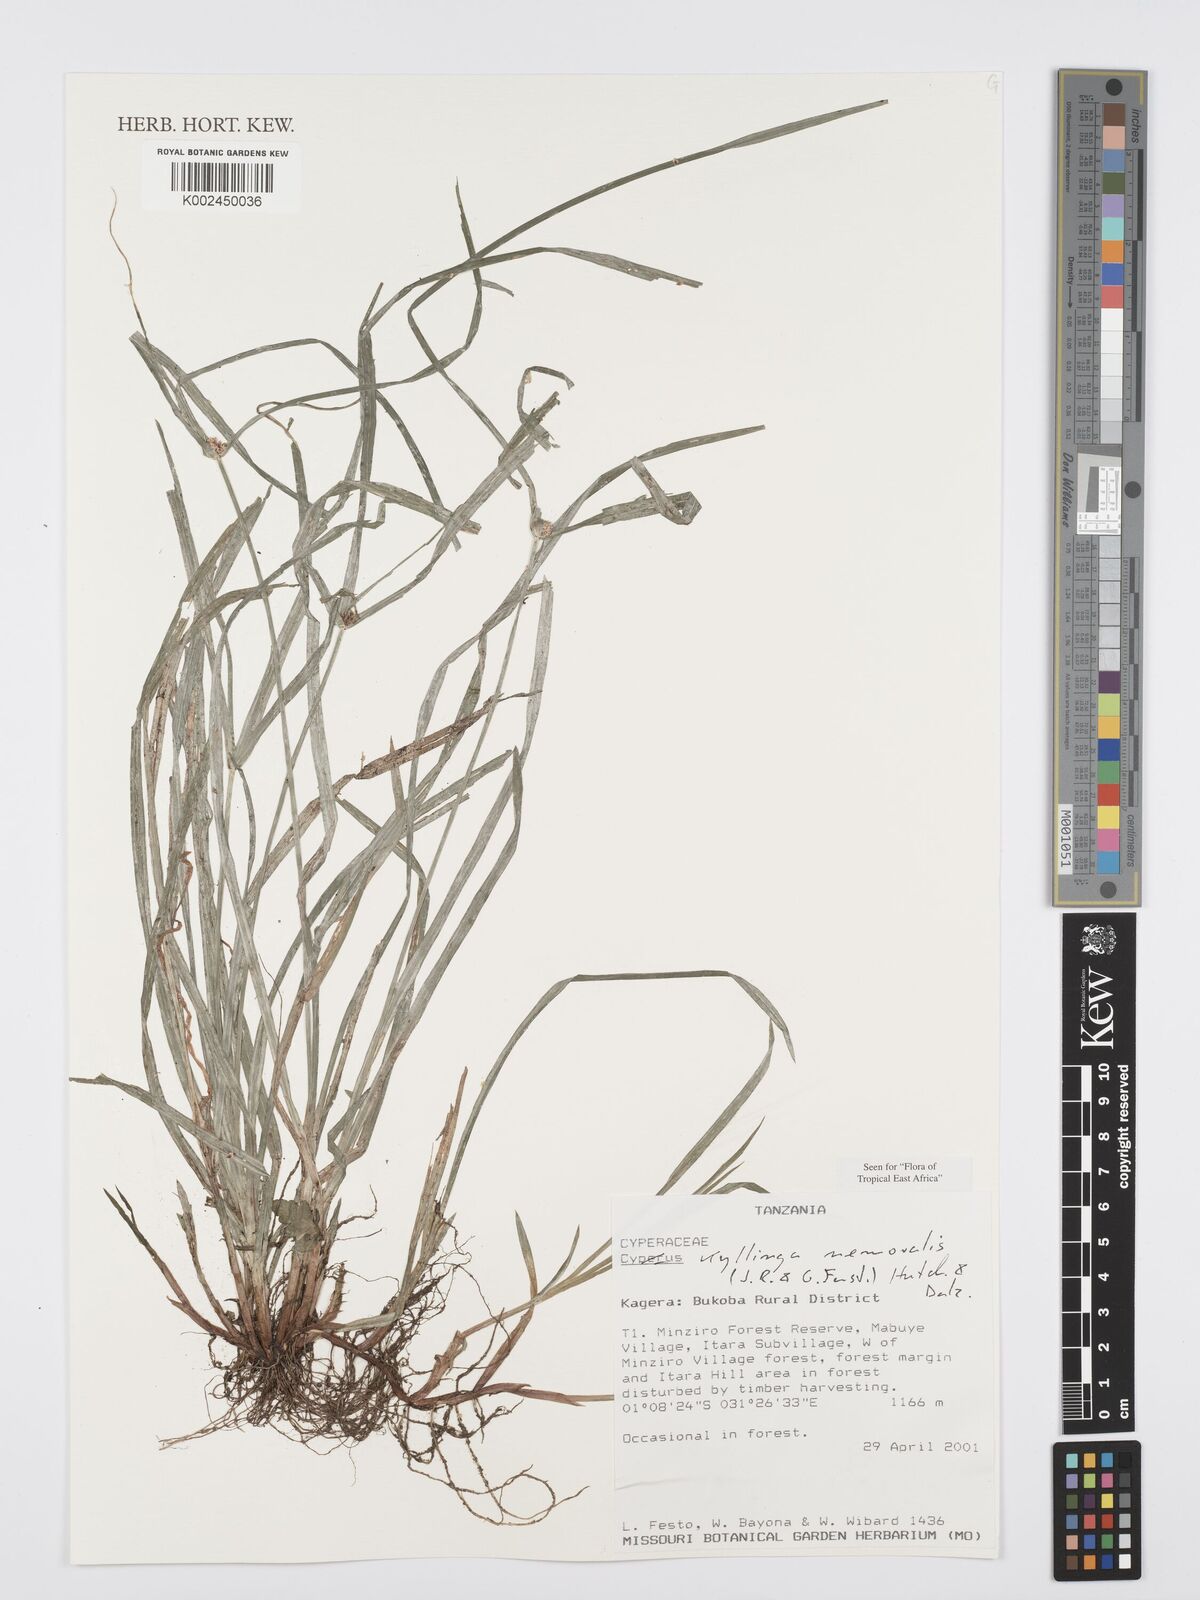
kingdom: Plantae
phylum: Tracheophyta
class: Liliopsida
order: Poales
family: Cyperaceae
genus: Cyperus
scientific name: Cyperus nemoralis
